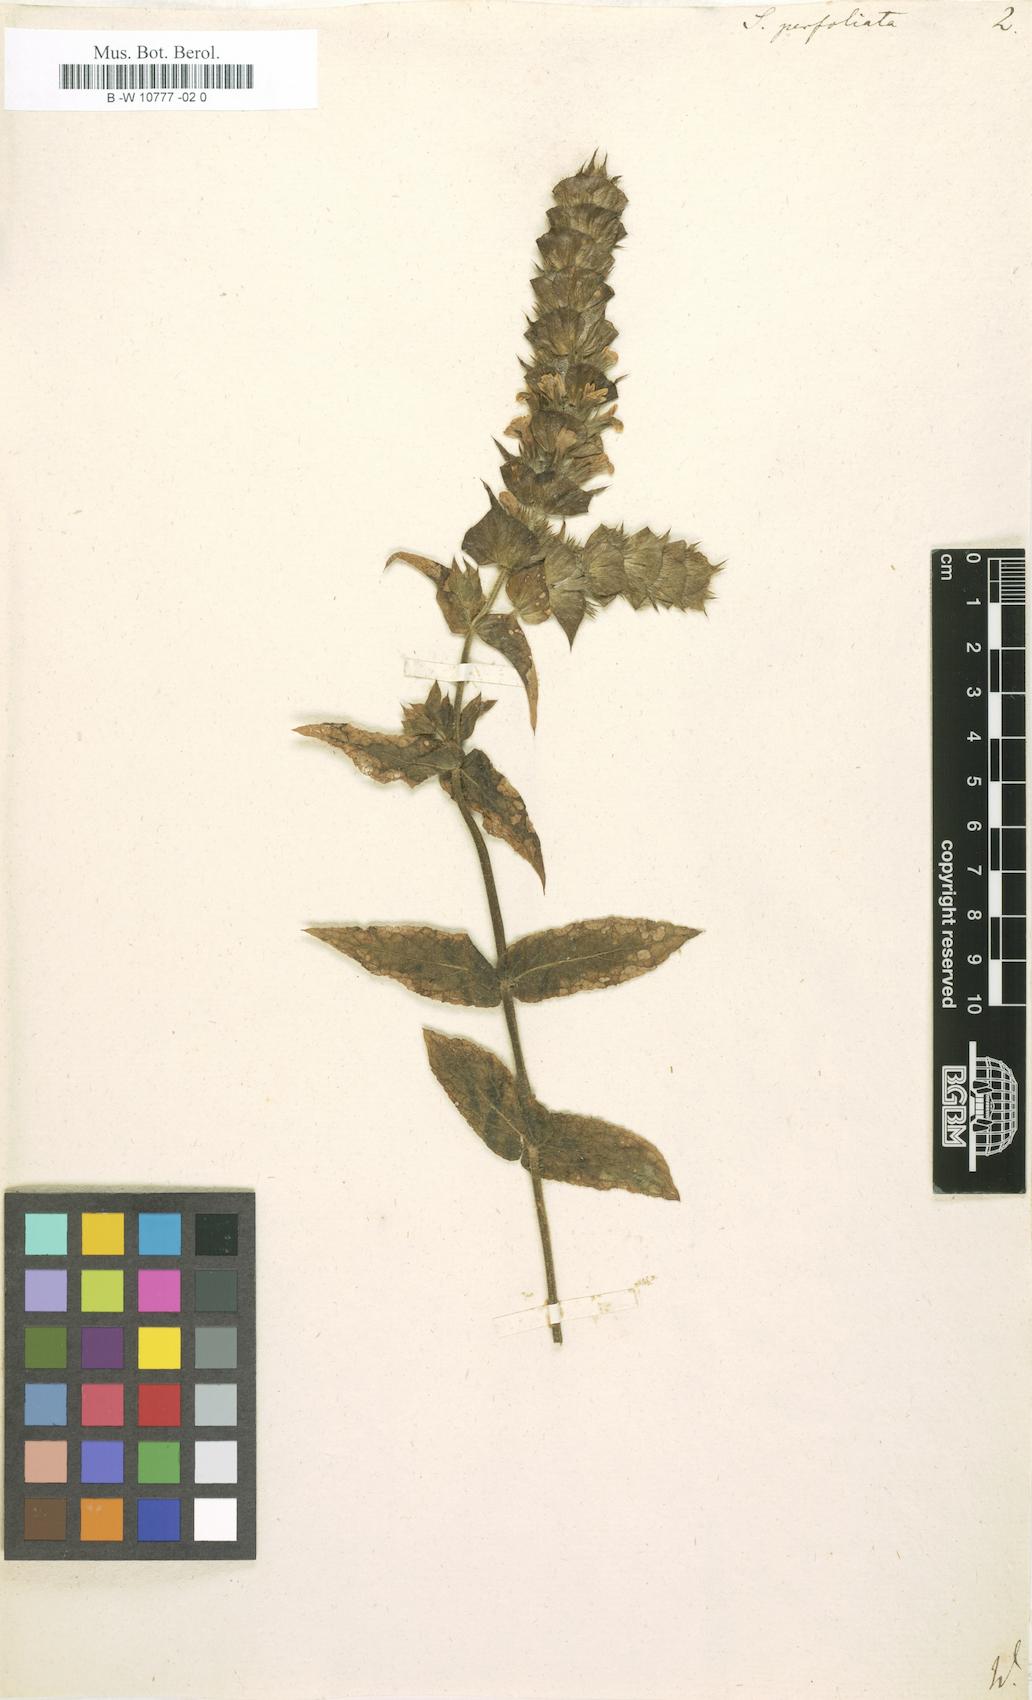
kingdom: Plantae
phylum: Tracheophyta
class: Magnoliopsida
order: Lamiales
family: Lamiaceae
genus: Sideritis
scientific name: Sideritis perfoliata
